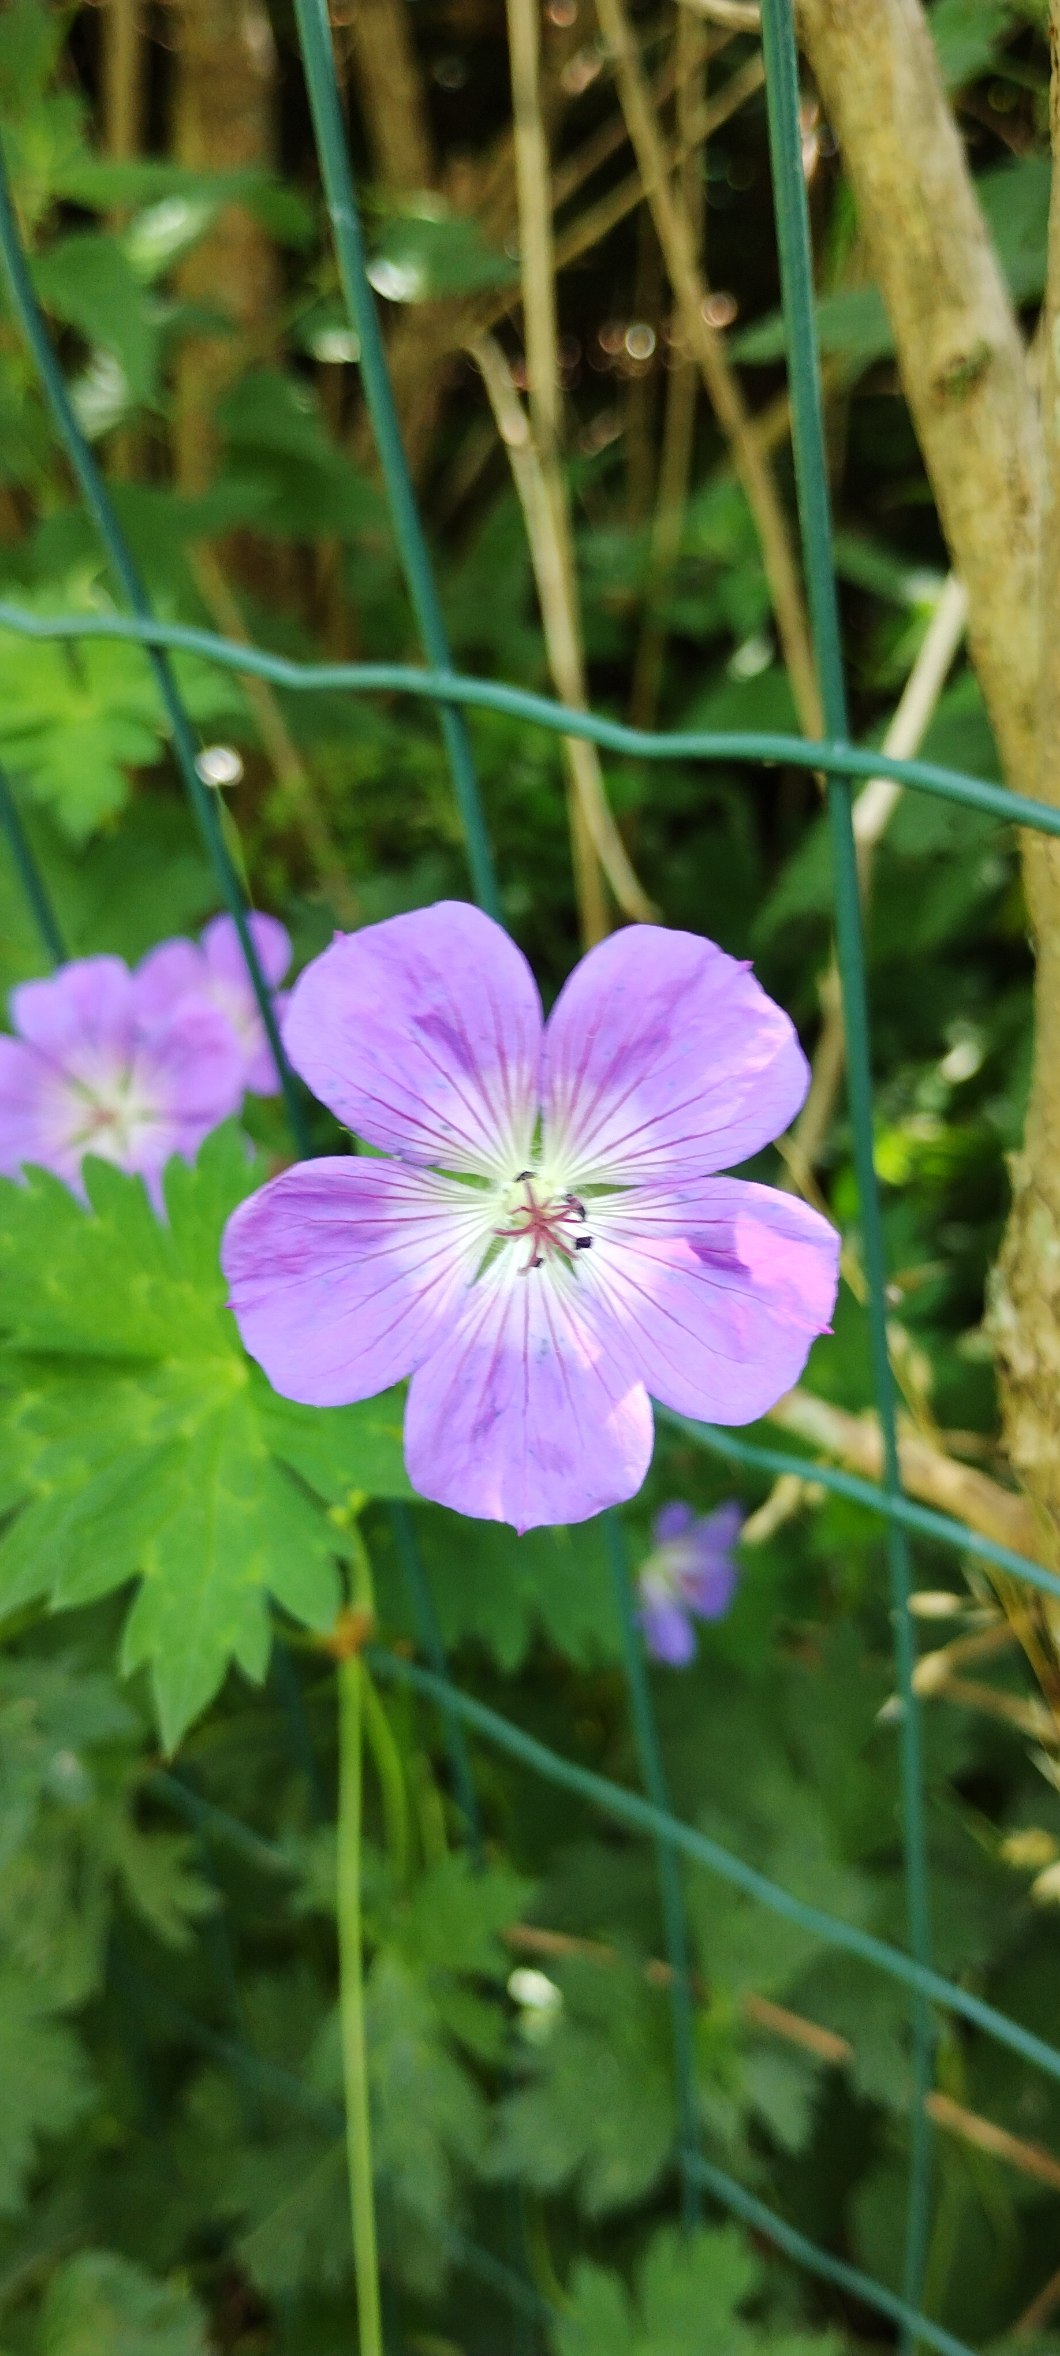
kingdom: Plantae
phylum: Tracheophyta
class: Magnoliopsida
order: Geraniales
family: Geraniaceae
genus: Geranium
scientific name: Geranium sylvaticum
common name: Skov-storkenæb
